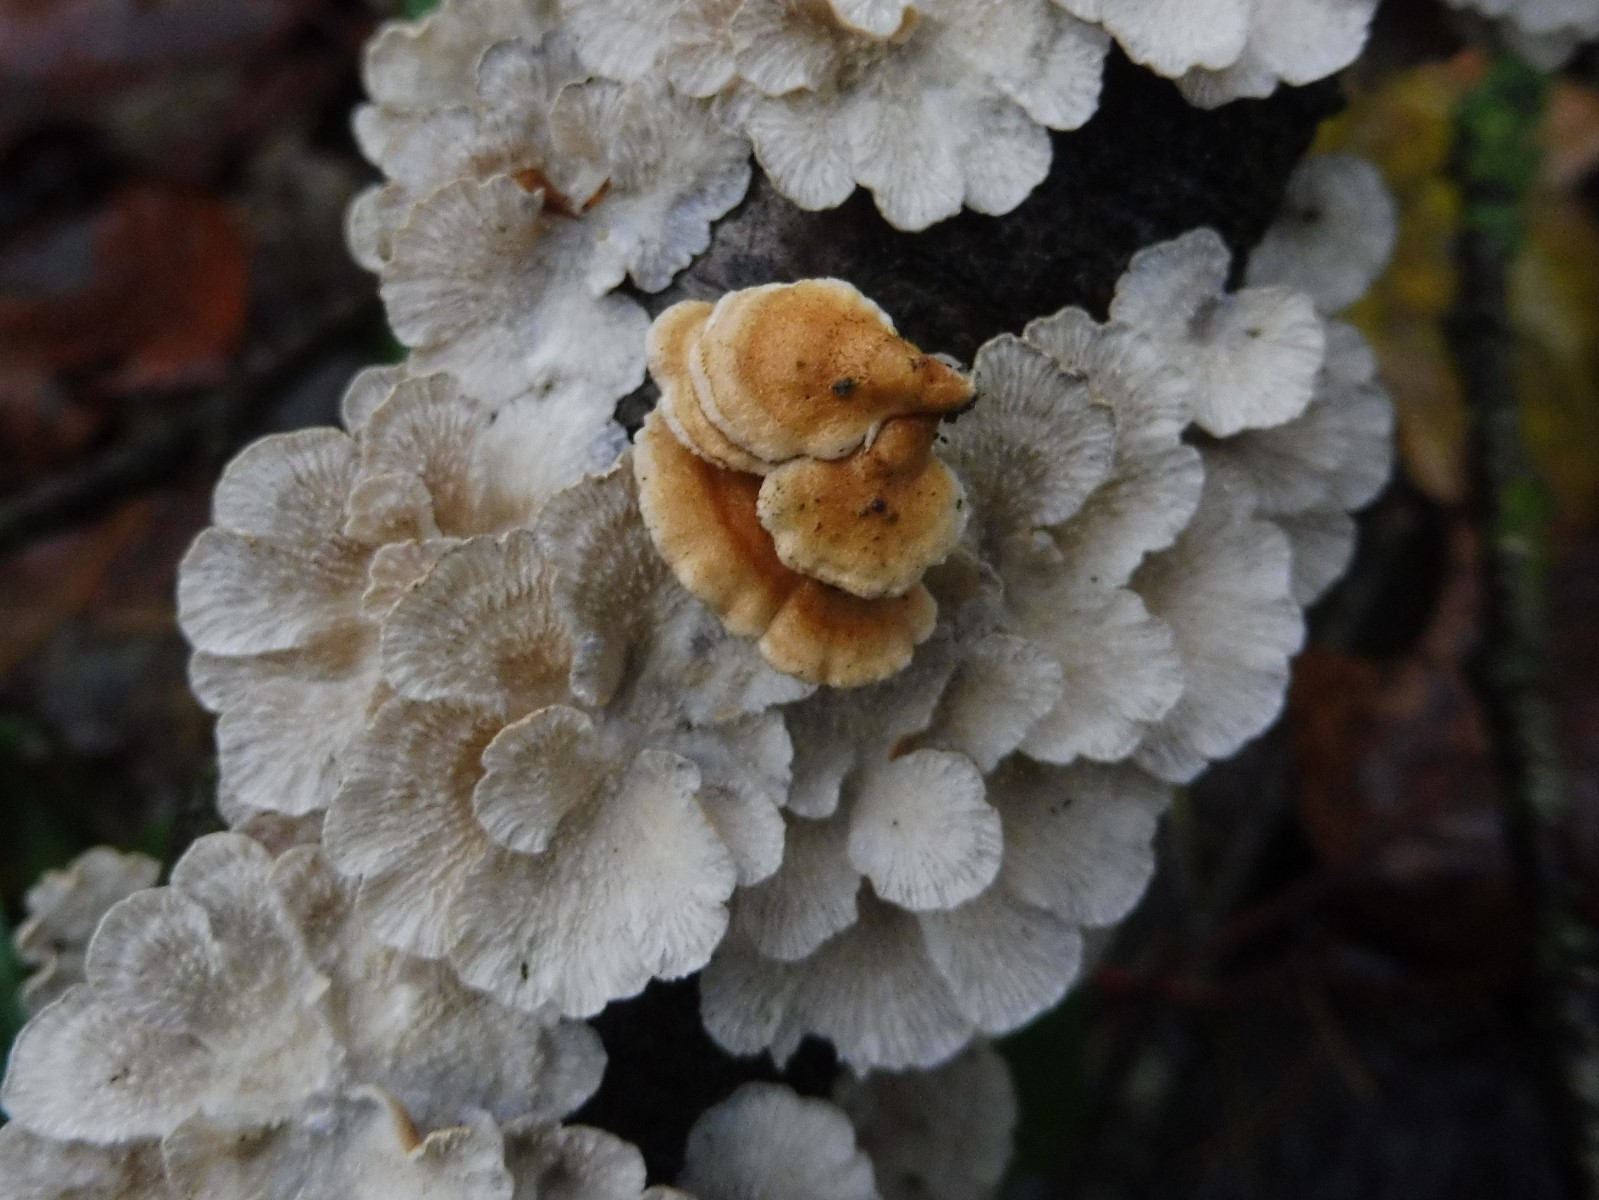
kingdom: Fungi
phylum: Basidiomycota
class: Agaricomycetes
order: Amylocorticiales
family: Amylocorticiaceae
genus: Plicaturopsis
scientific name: Plicaturopsis crispa
